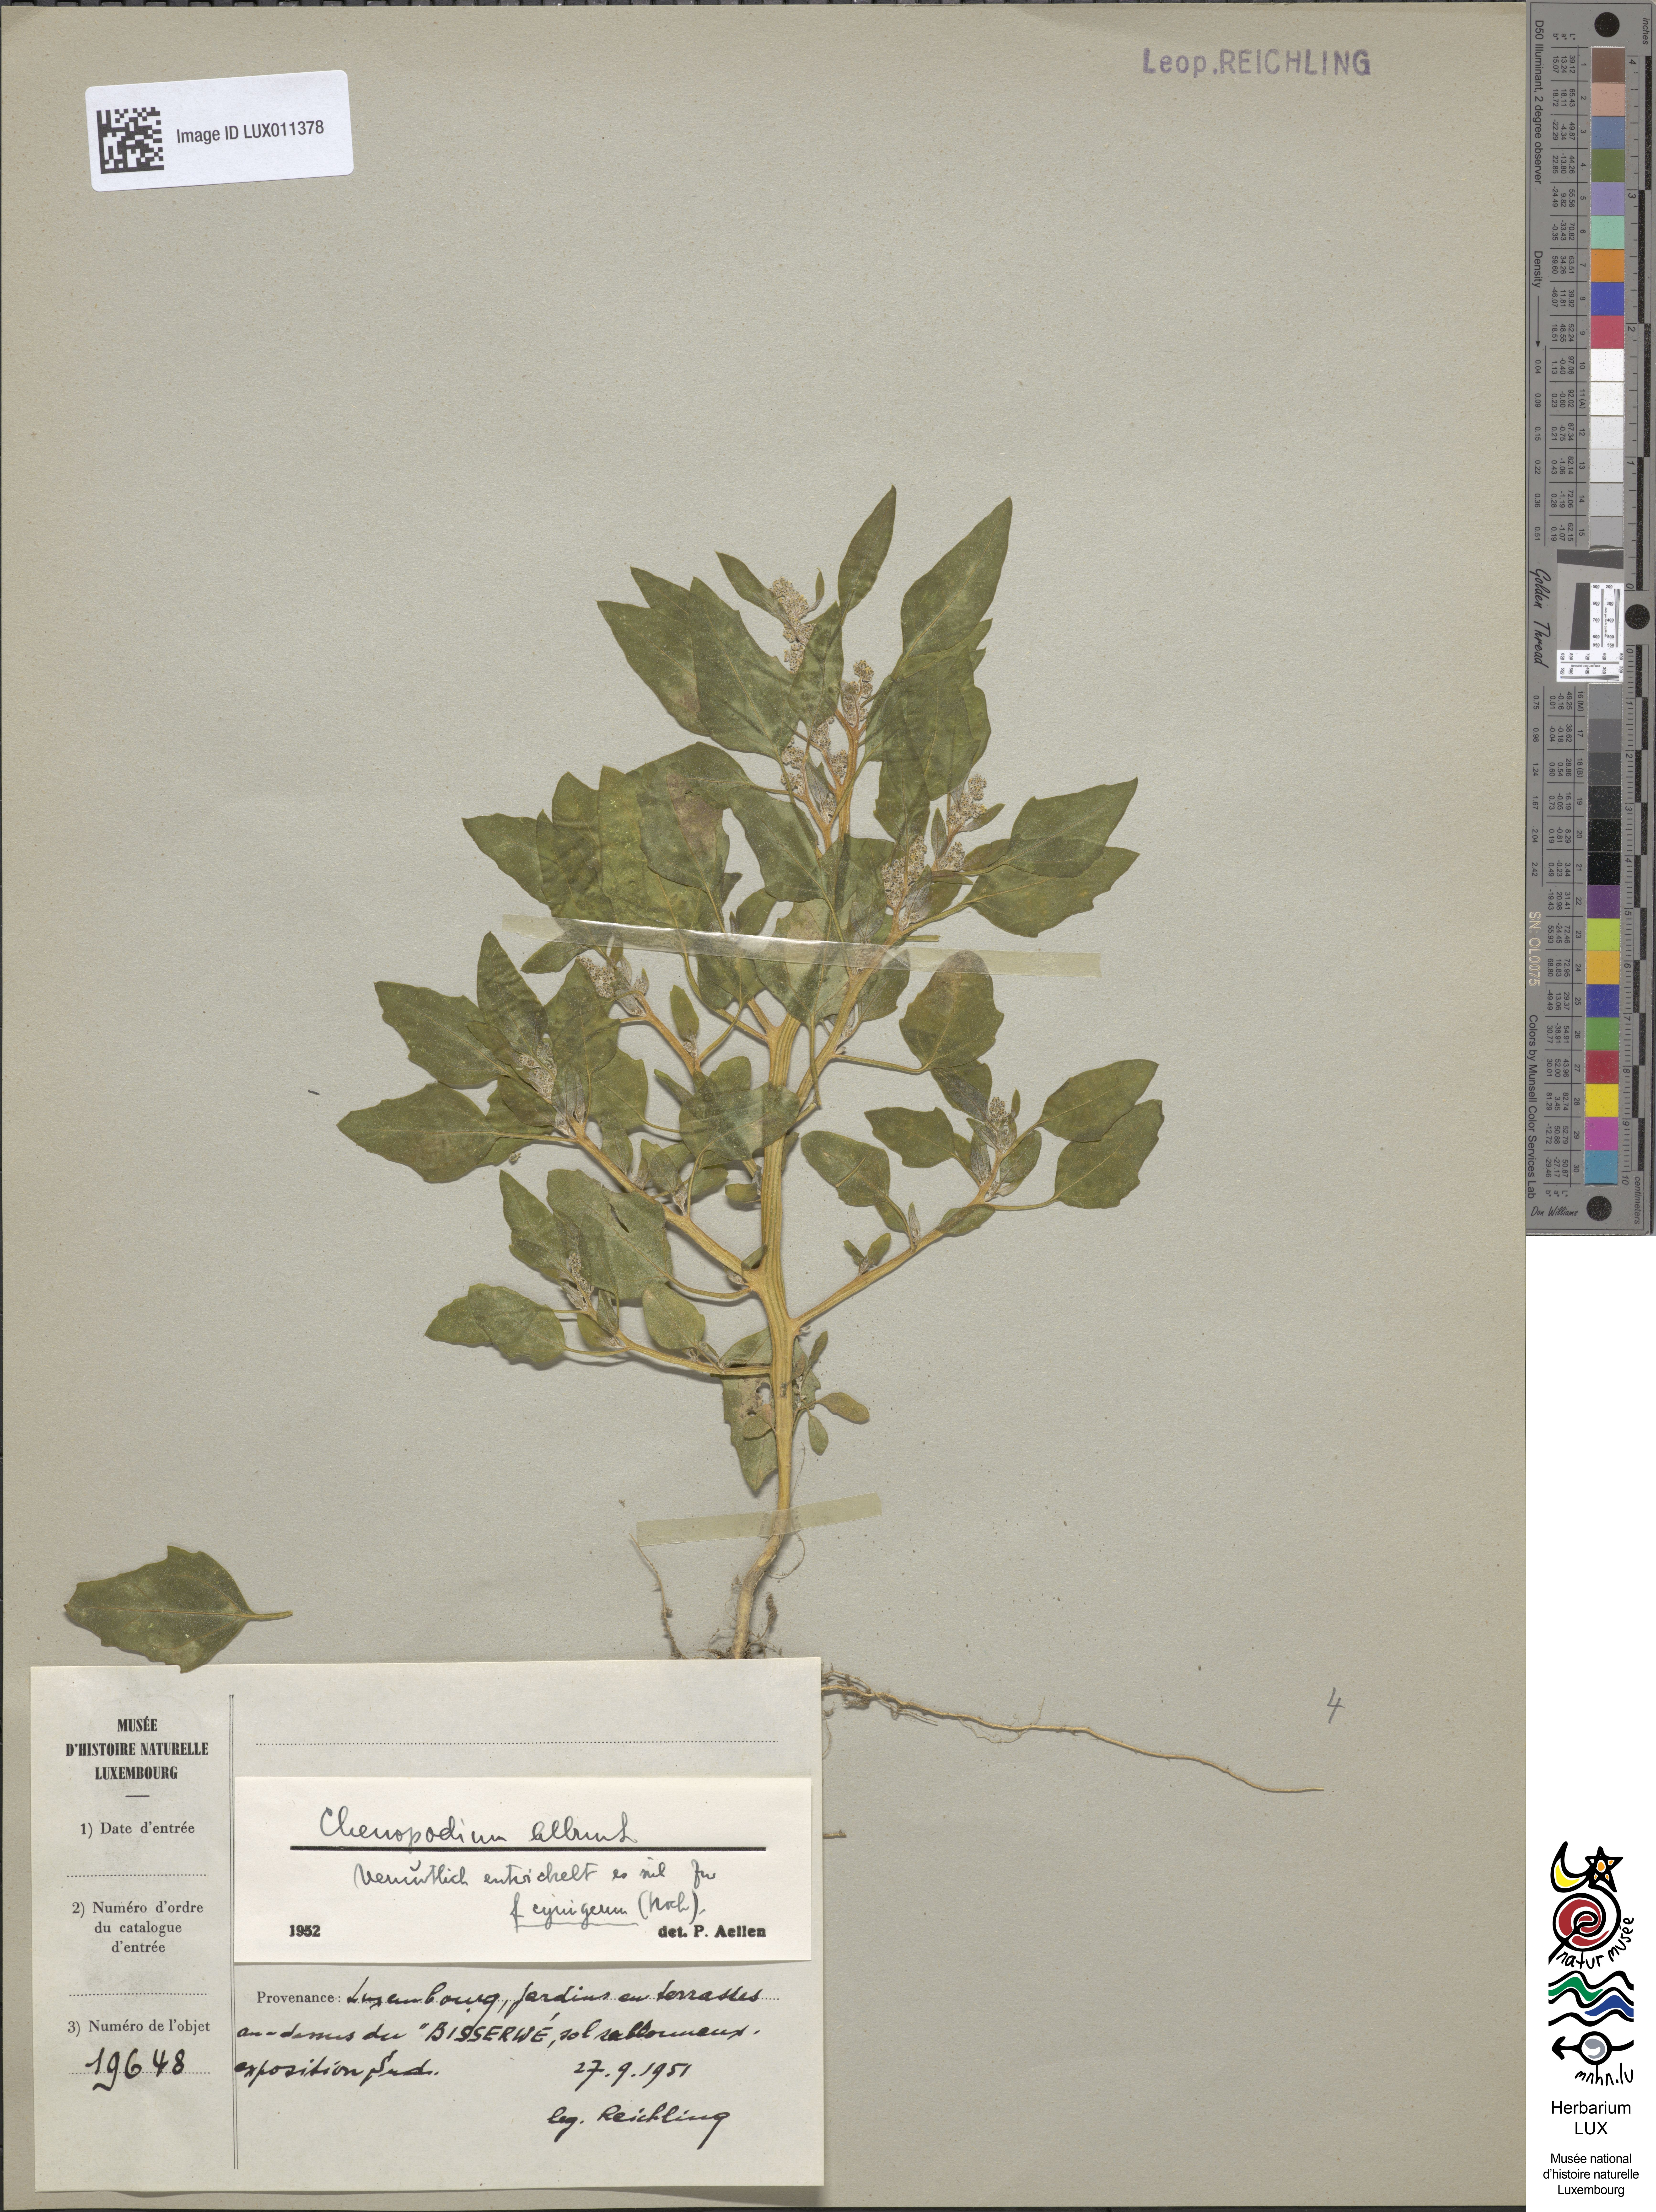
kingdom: Plantae
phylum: Tracheophyta
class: Magnoliopsida
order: Caryophyllales
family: Amaranthaceae
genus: Chenopodium
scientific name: Chenopodium
